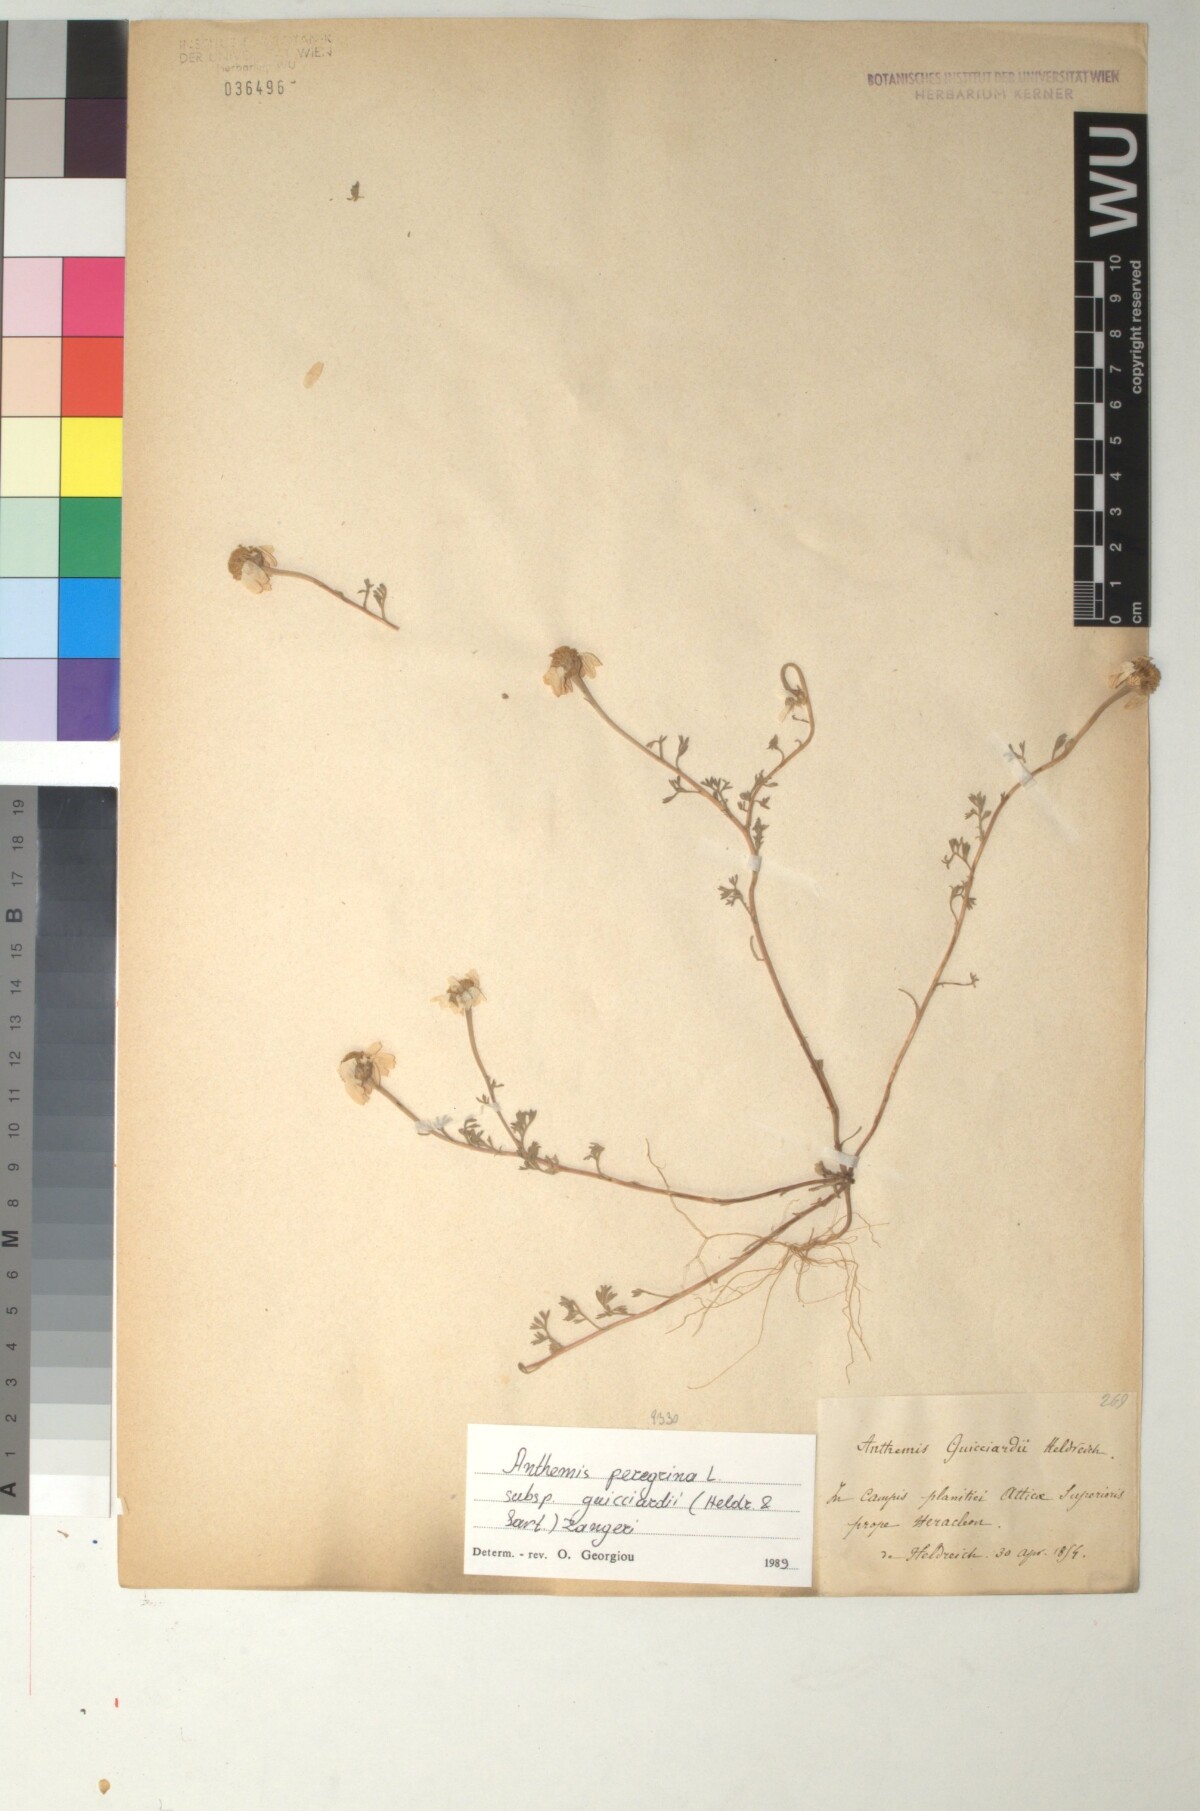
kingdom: Plantae
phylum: Tracheophyta
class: Magnoliopsida
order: Asterales
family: Asteraceae
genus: Anthemis
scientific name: Anthemis tomentosa
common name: Woolly chamomile
